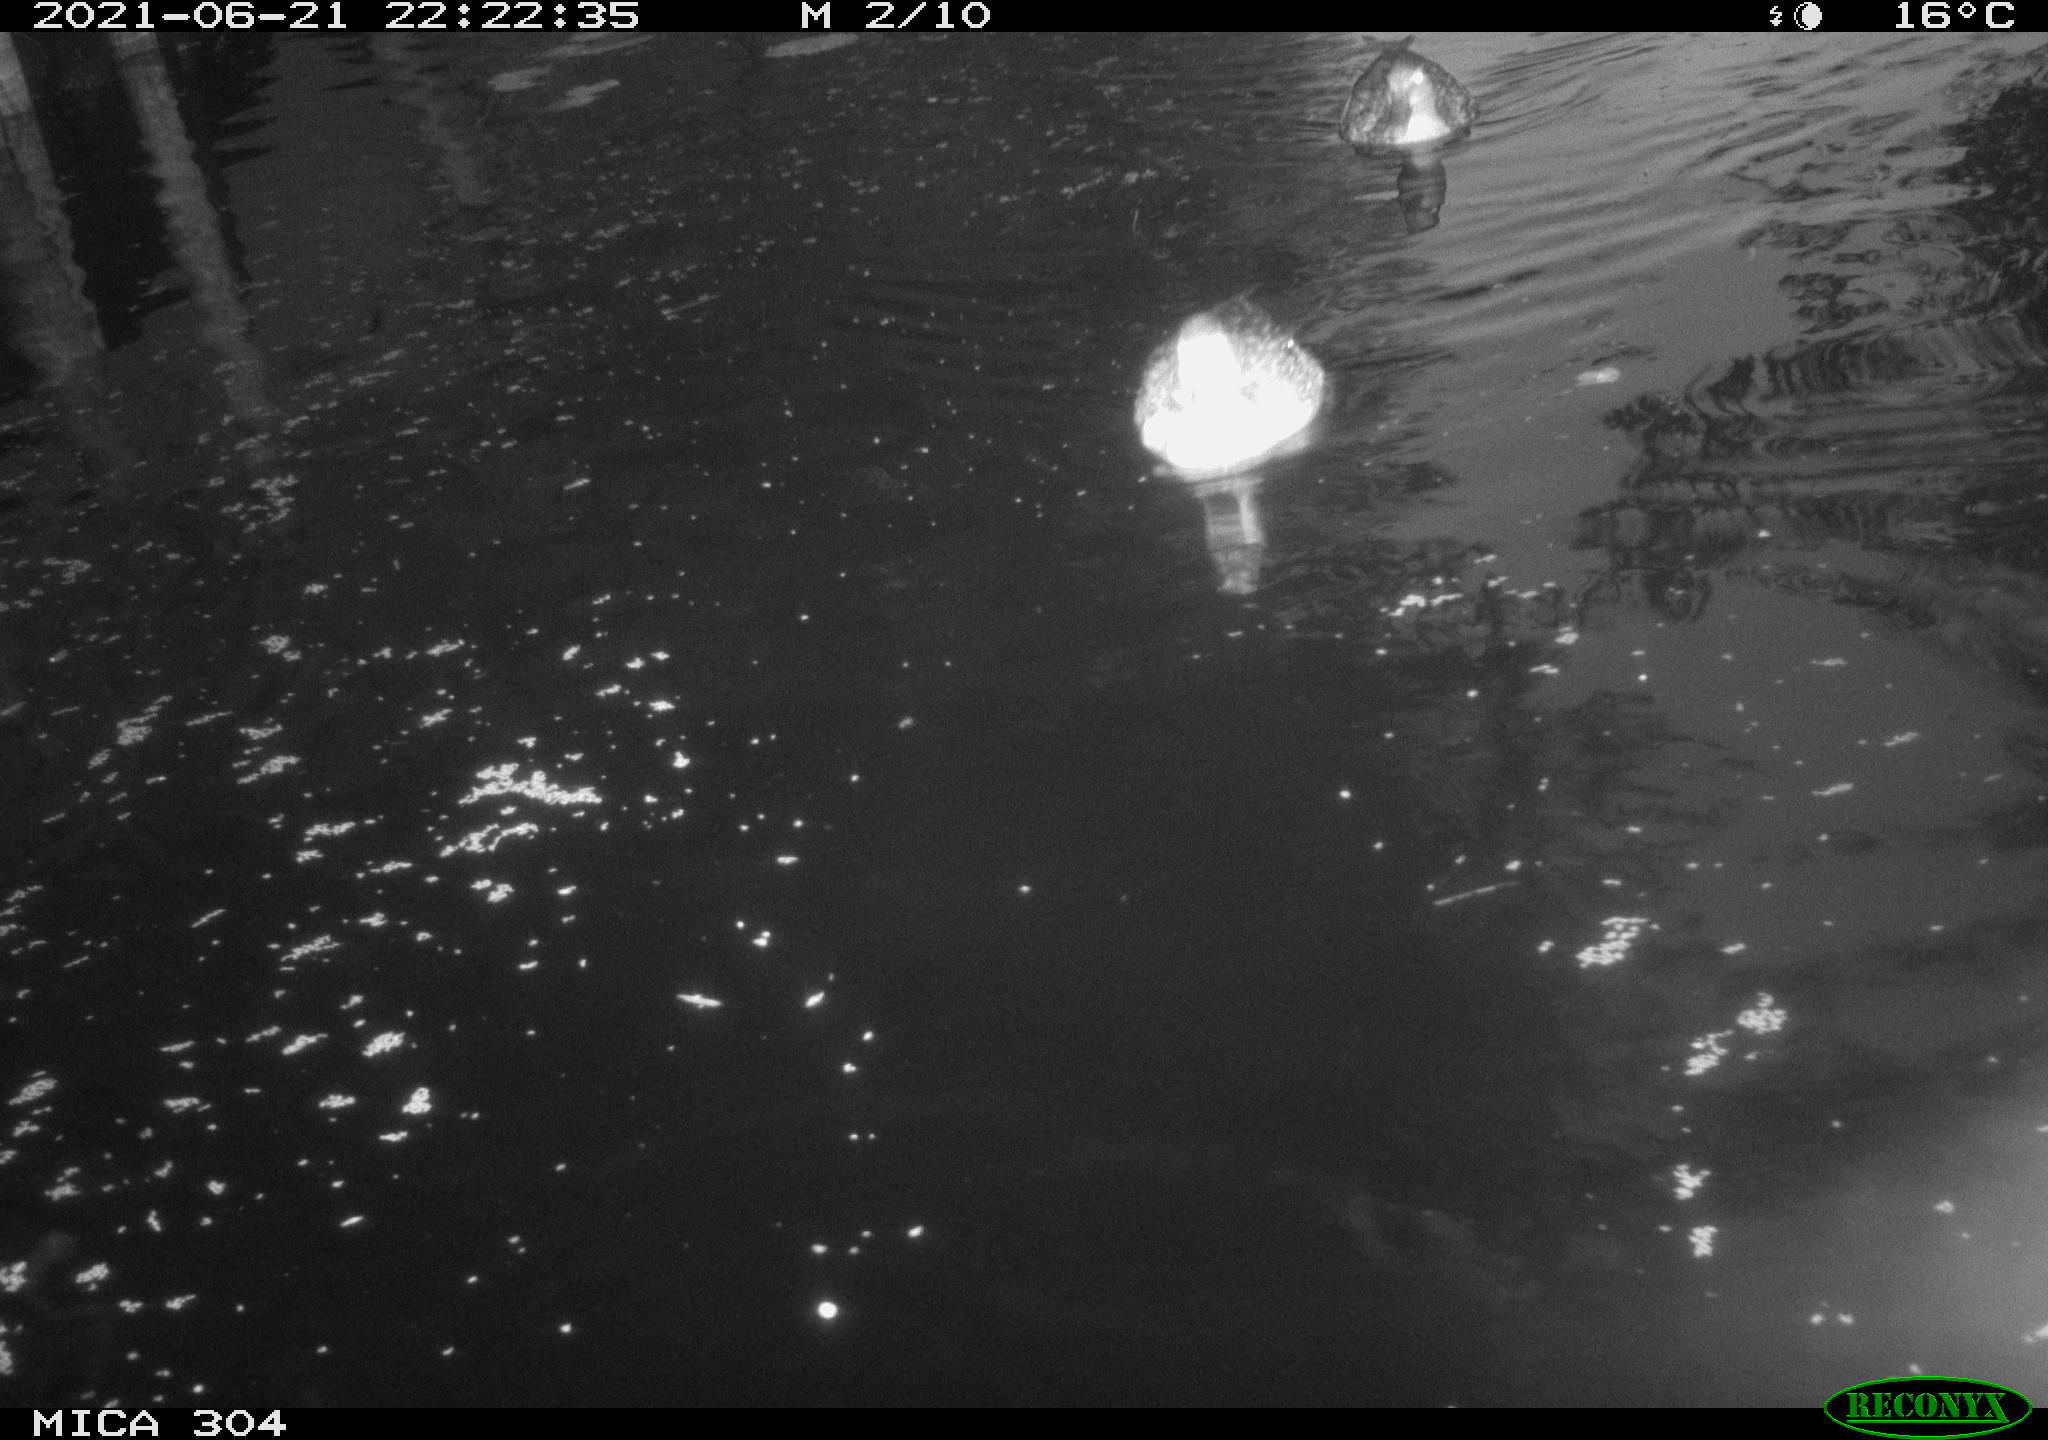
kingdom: Animalia
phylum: Chordata
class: Aves
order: Anseriformes
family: Anatidae
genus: Anas
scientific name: Anas platyrhynchos
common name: Mallard
